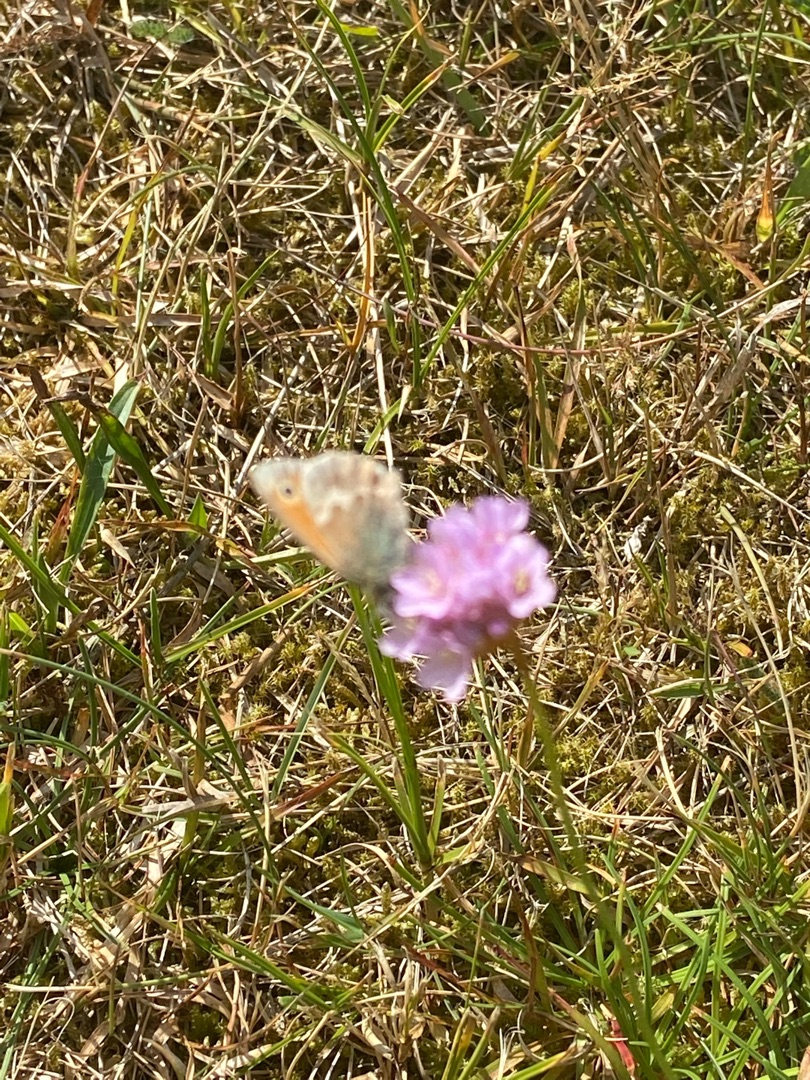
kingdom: Animalia
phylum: Arthropoda
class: Insecta
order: Lepidoptera
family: Nymphalidae
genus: Coenonympha
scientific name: Coenonympha pamphilus
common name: Okkergul randøje
